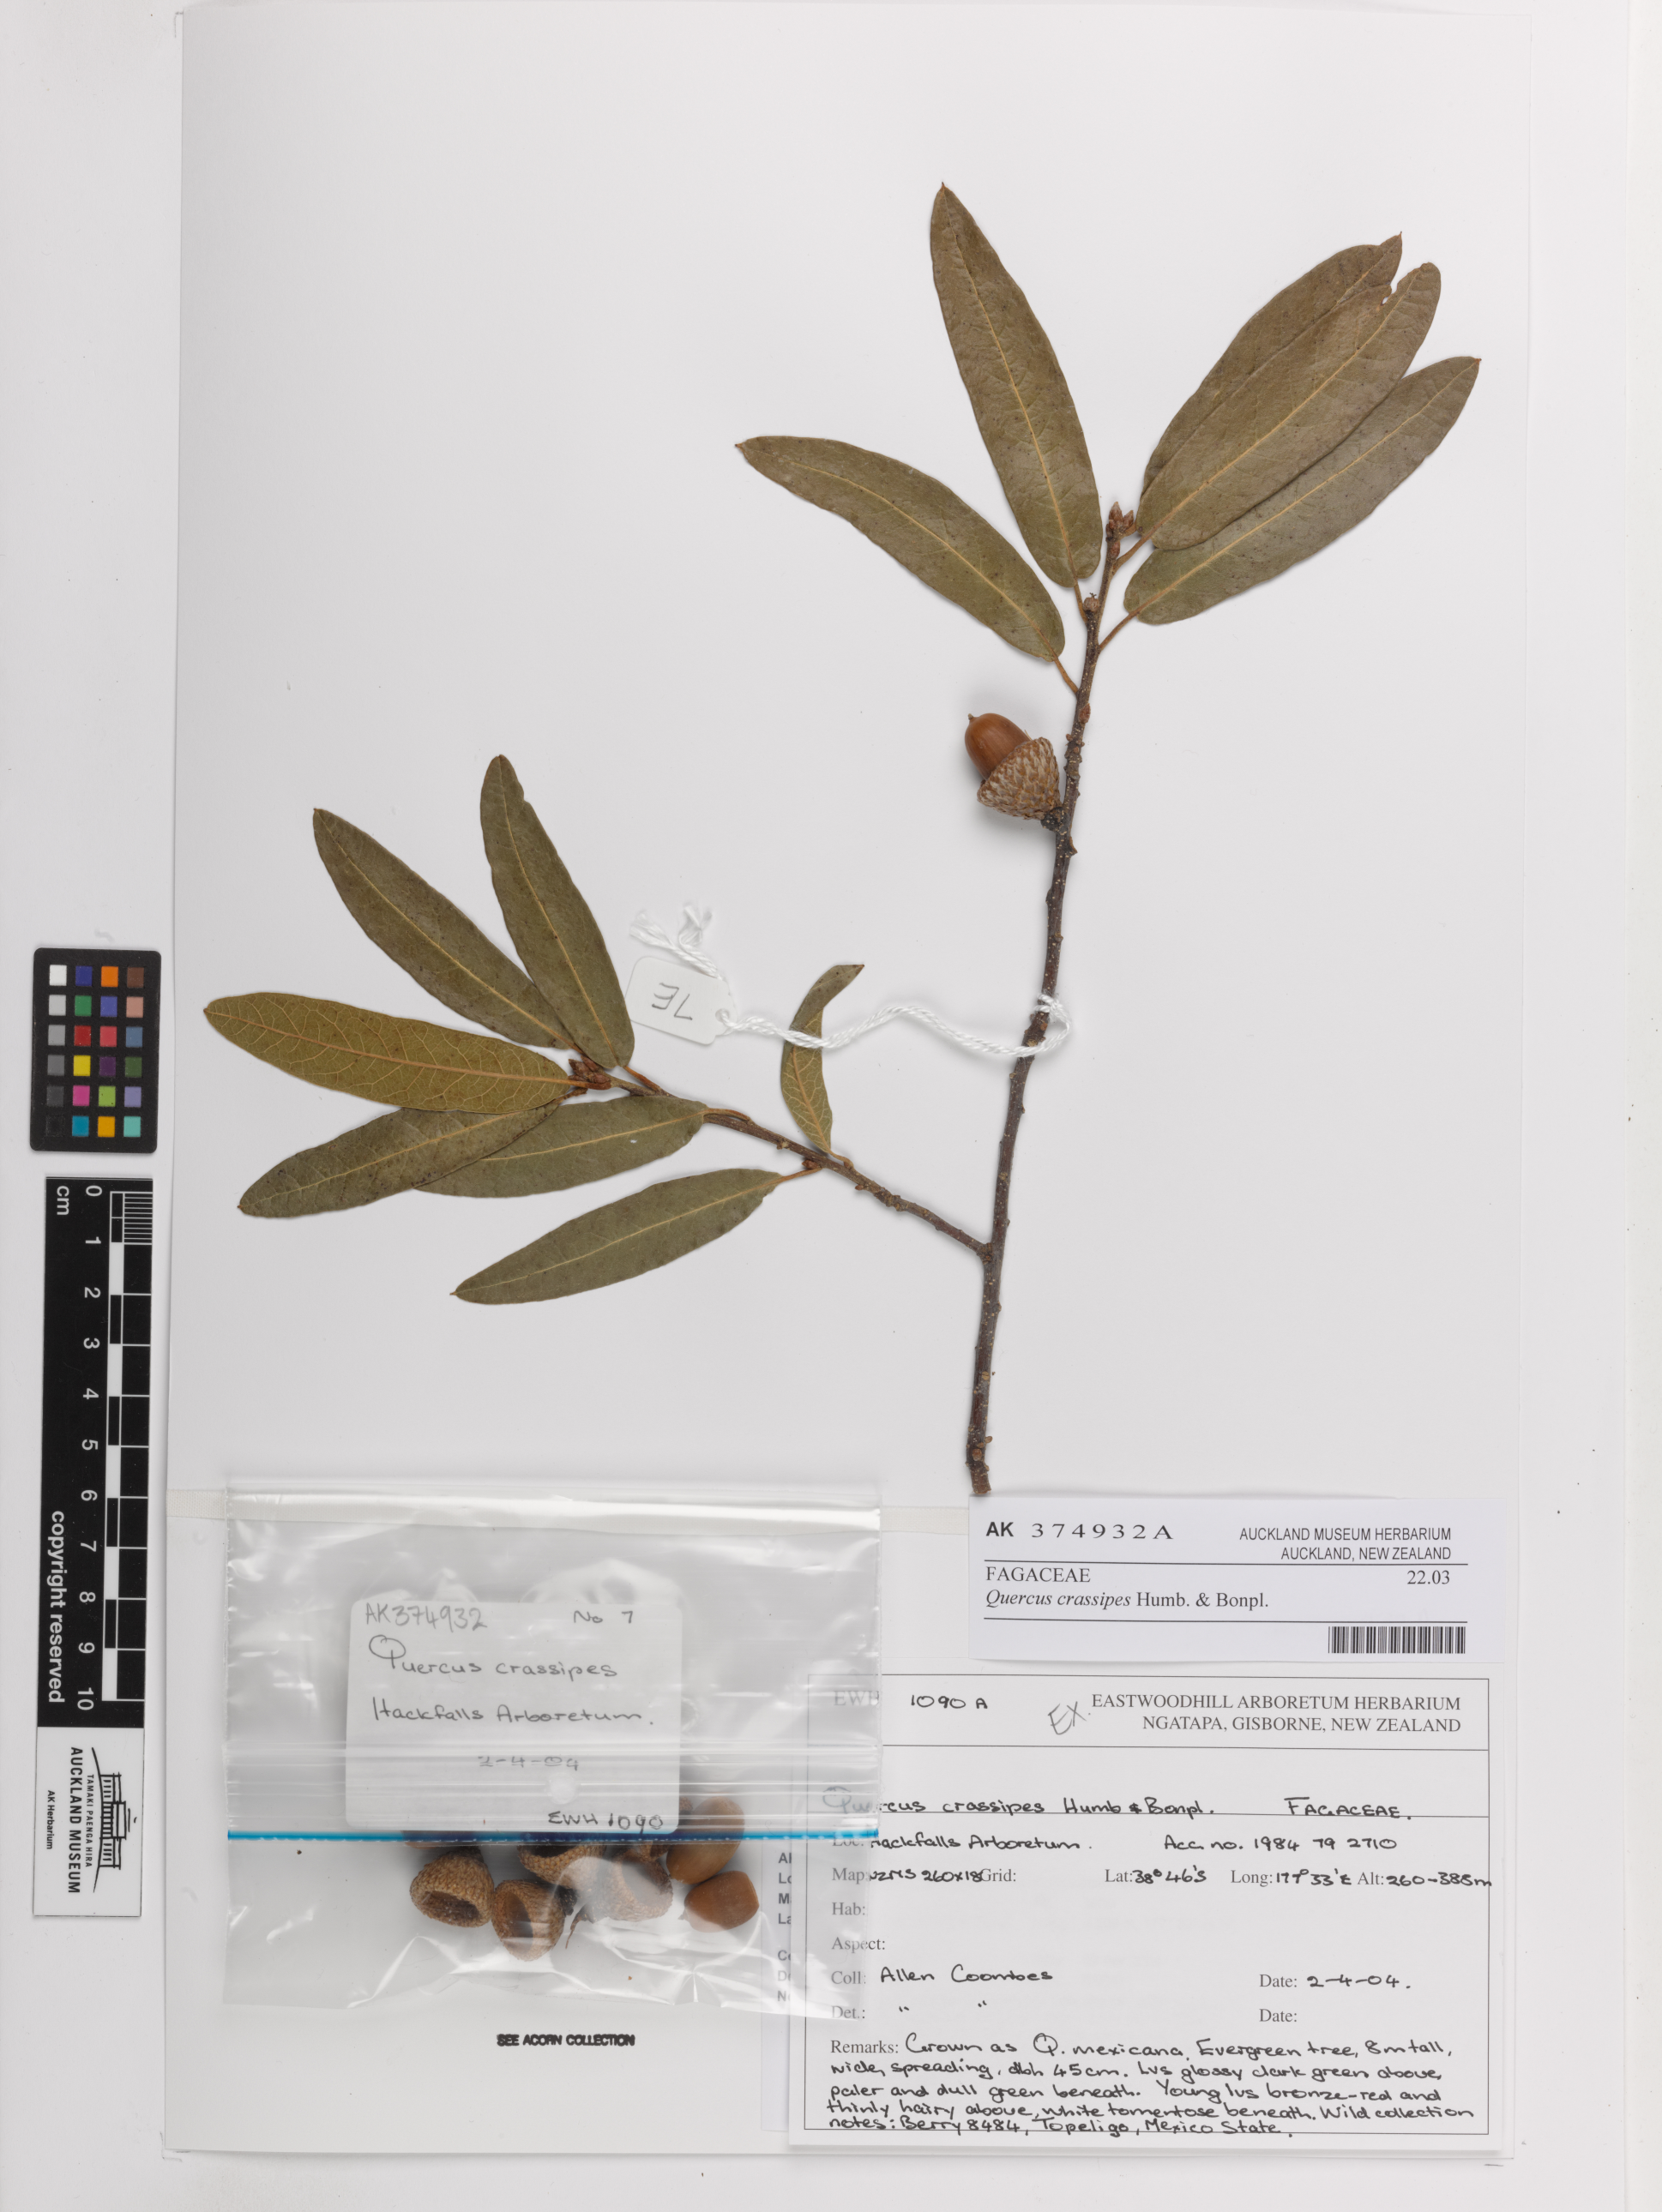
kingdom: Plantae
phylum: Tracheophyta
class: Magnoliopsida
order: Fagales
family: Fagaceae
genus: Quercus
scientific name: Quercus crassipes
